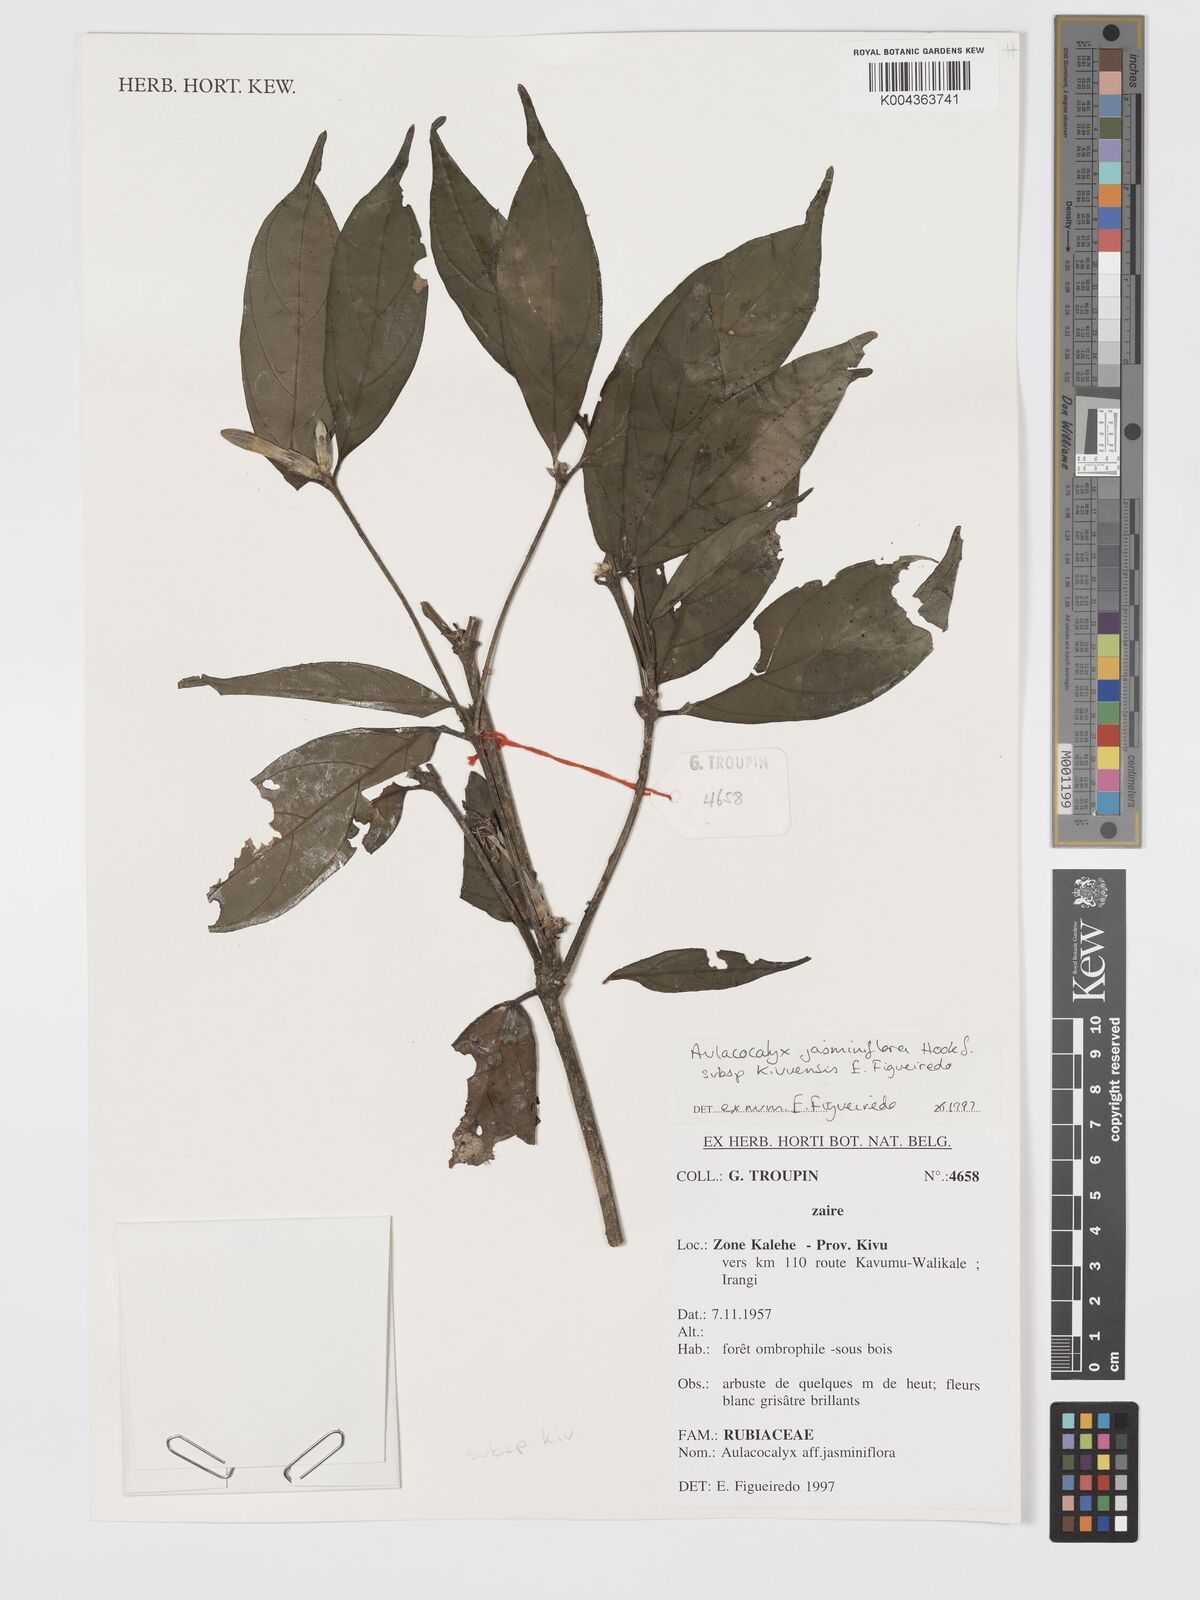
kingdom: Plantae
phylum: Tracheophyta
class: Magnoliopsida
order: Gentianales
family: Rubiaceae
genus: Aulacocalyx
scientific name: Aulacocalyx jasminiflora
